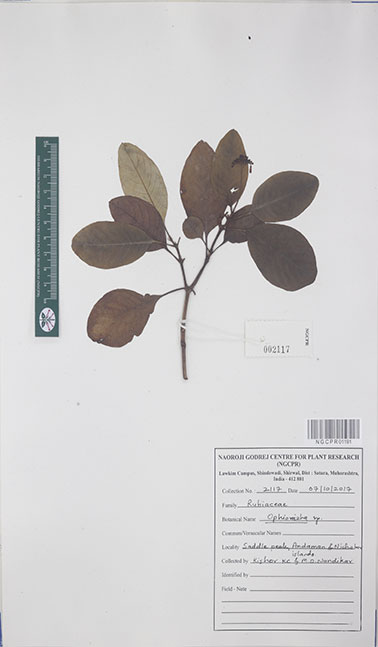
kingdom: Plantae
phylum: Tracheophyta
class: Magnoliopsida
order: Gentianales
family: Rubiaceae
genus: Ophiorrhiza
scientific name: Ophiorrhiza
